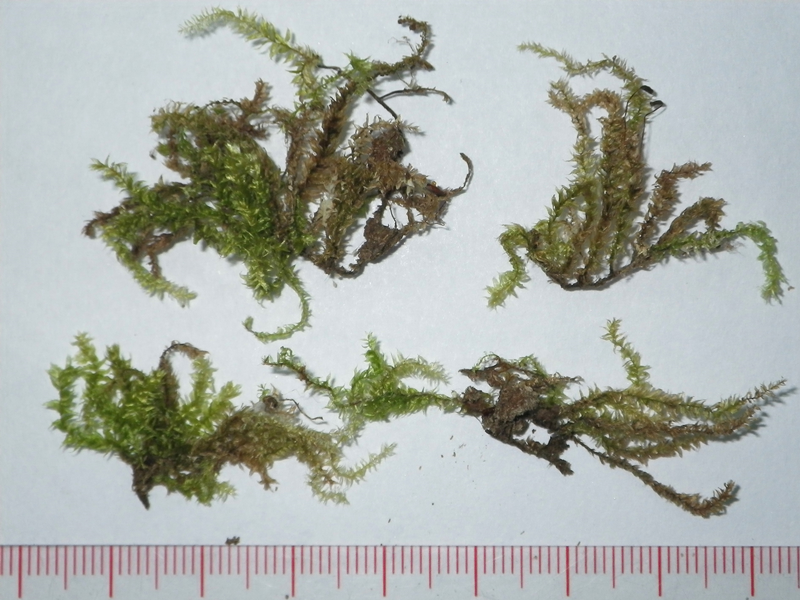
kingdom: Plantae
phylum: Bryophyta
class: Bryopsida
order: Hypnales
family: Brachytheciaceae
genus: Rhynchostegium
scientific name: Rhynchostegium
